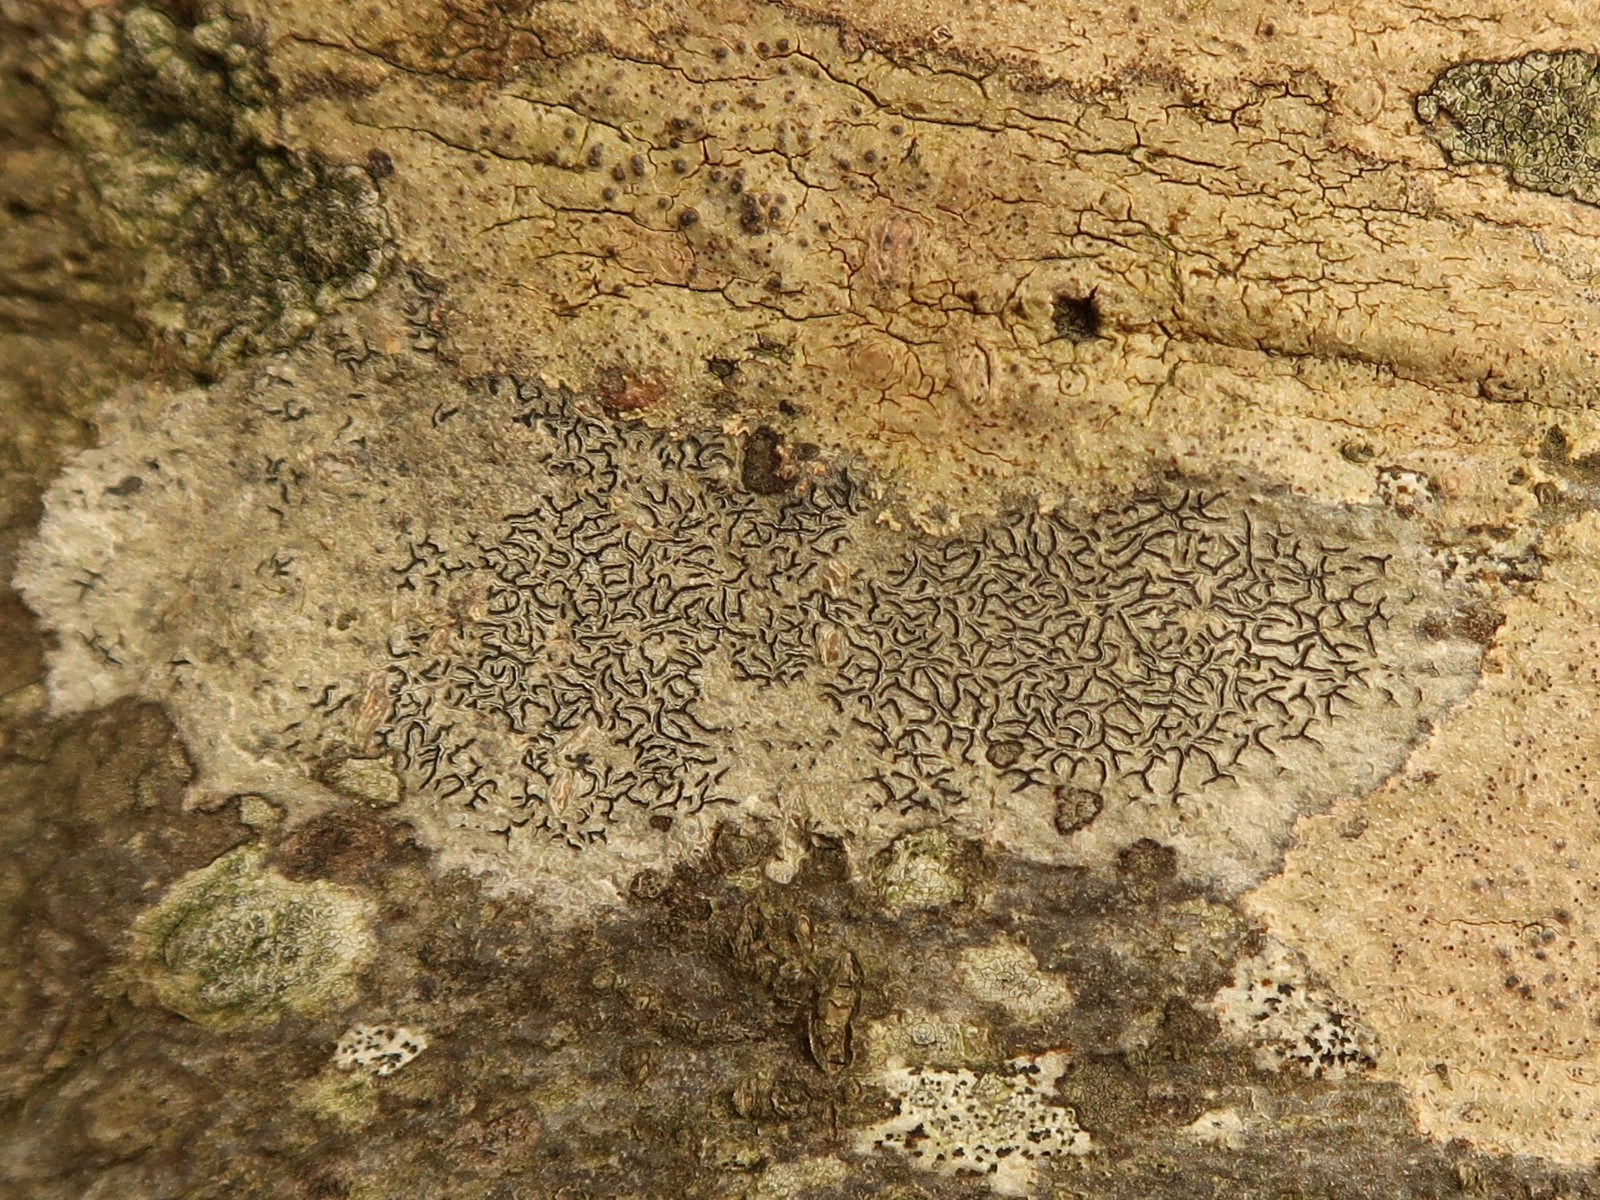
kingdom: Fungi
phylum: Ascomycota
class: Lecanoromycetes
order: Ostropales
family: Graphidaceae
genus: Graphis
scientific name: Graphis scripta
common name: almindelig skriftlav
